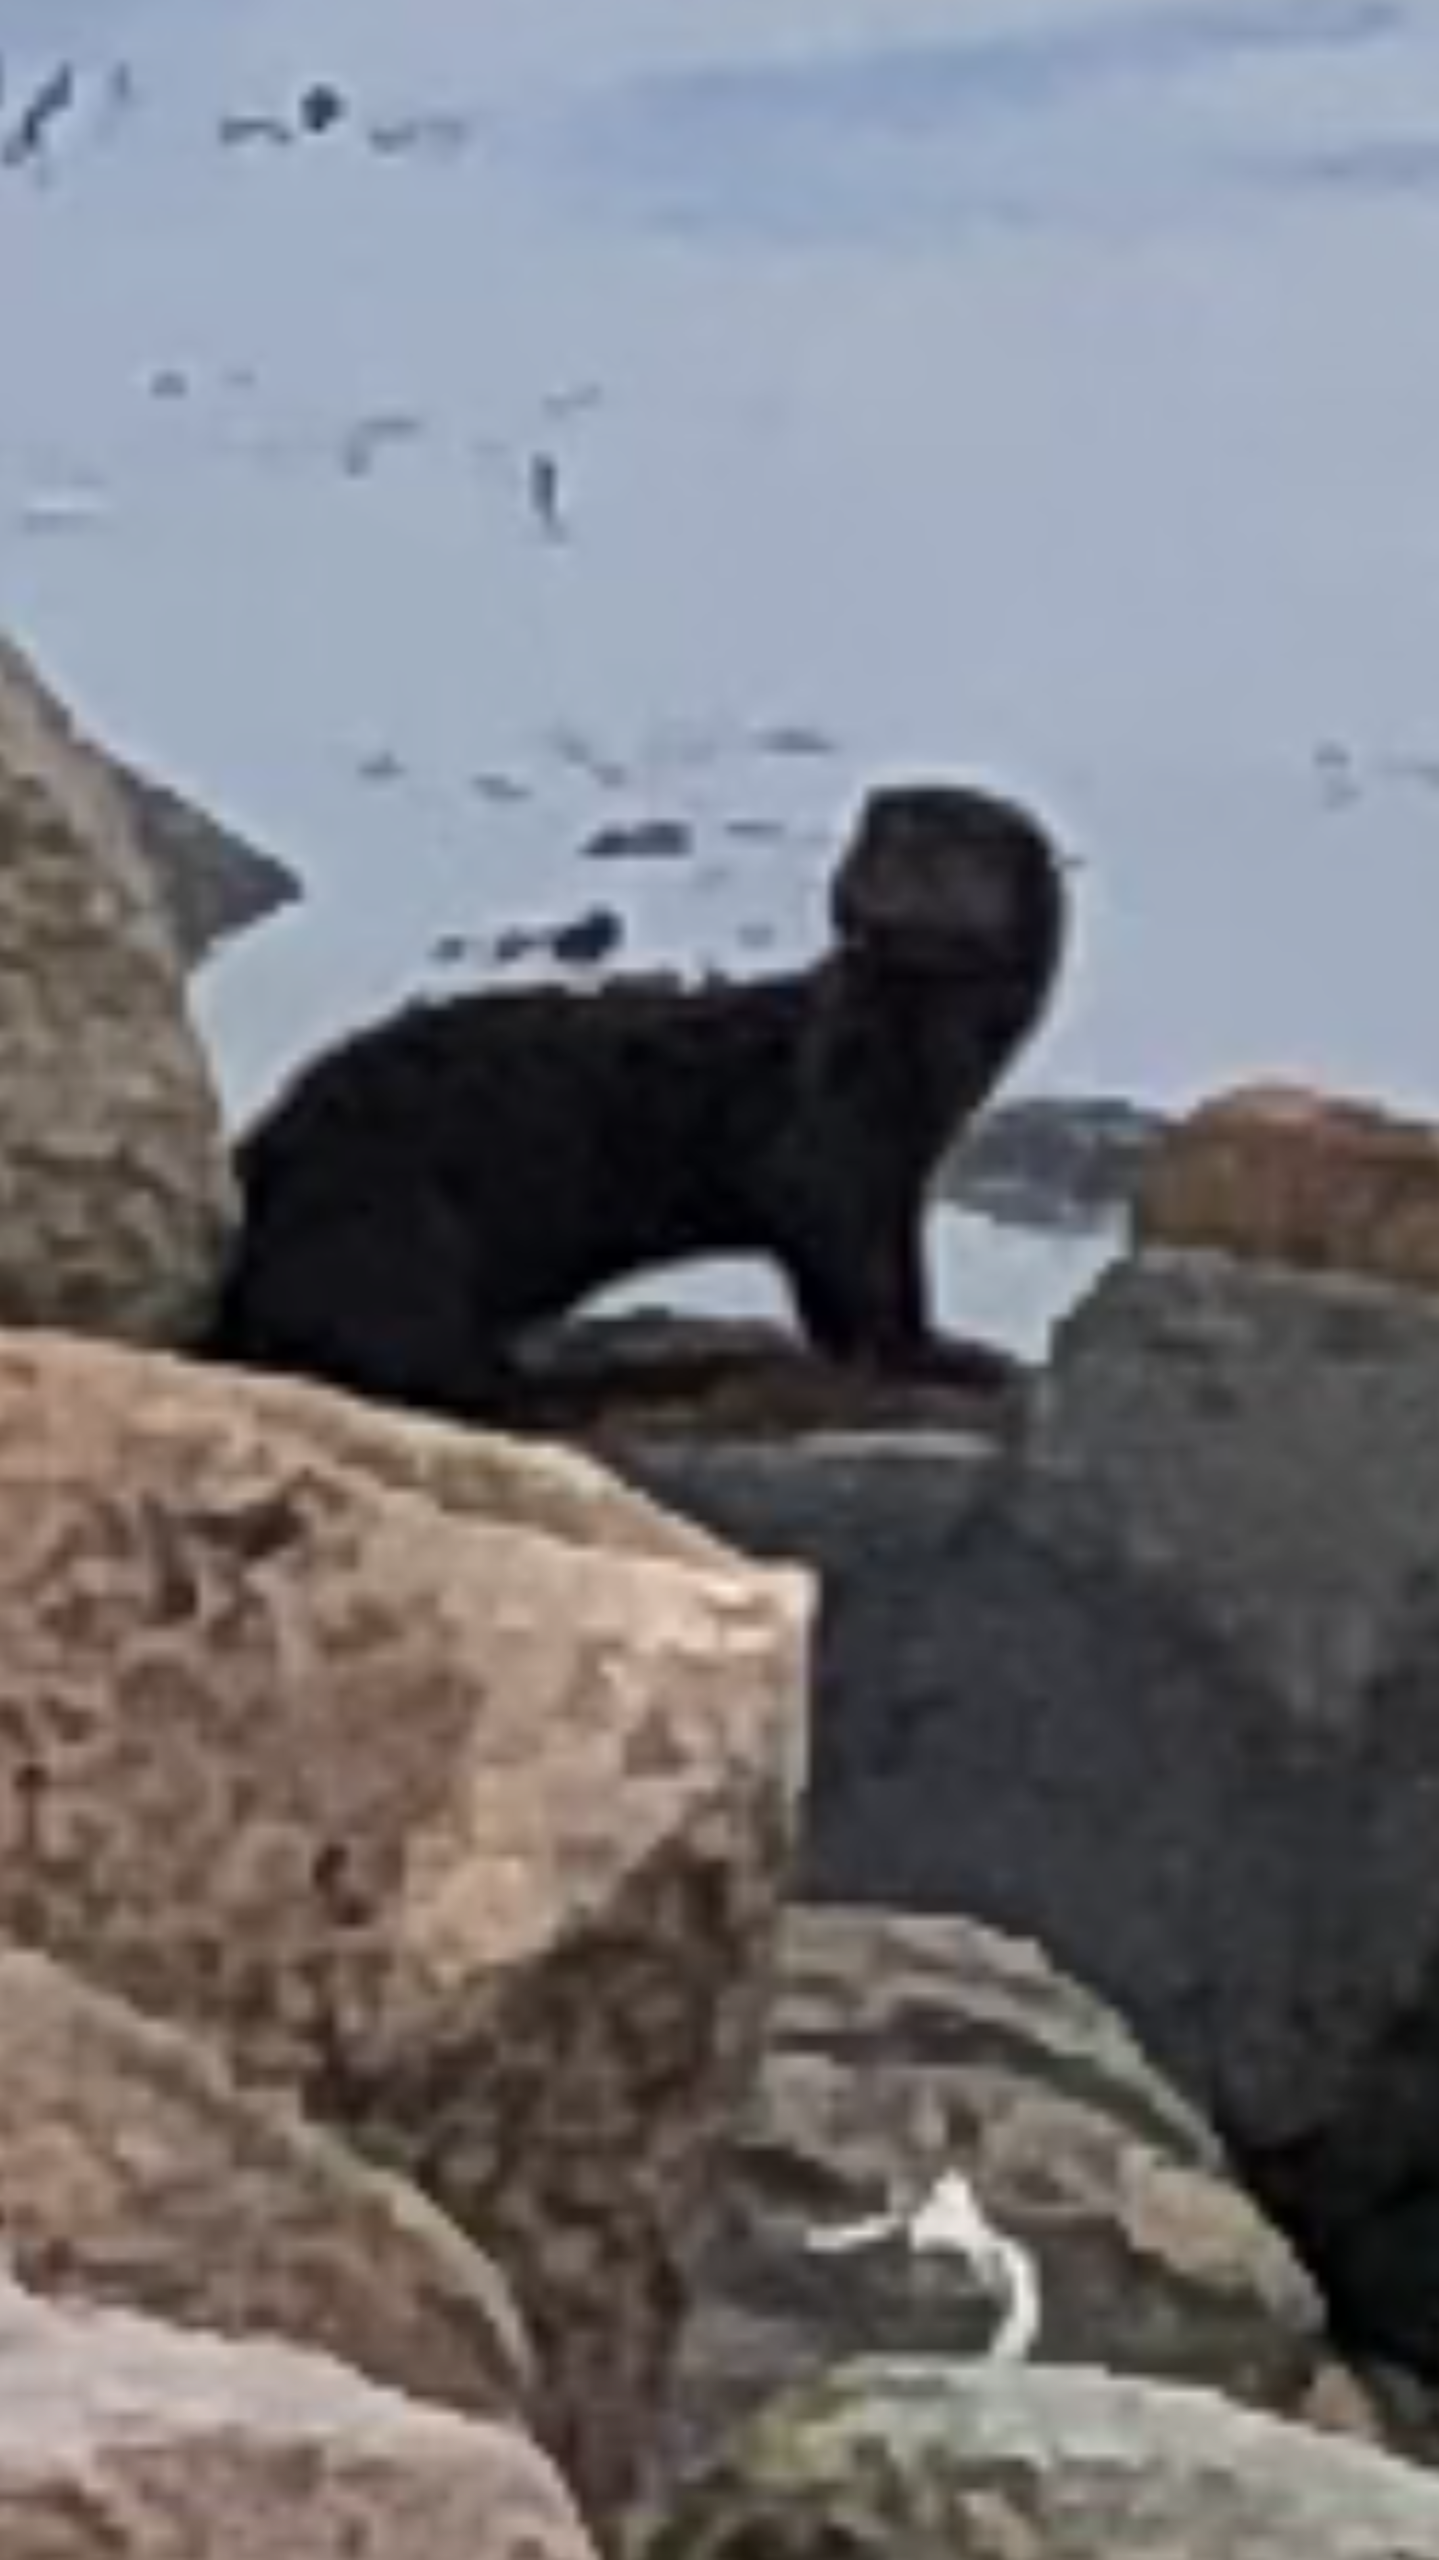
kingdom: Animalia
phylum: Chordata
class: Mammalia
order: Carnivora
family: Mustelidae
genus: Mustela
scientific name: Mustela vison
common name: Mink
